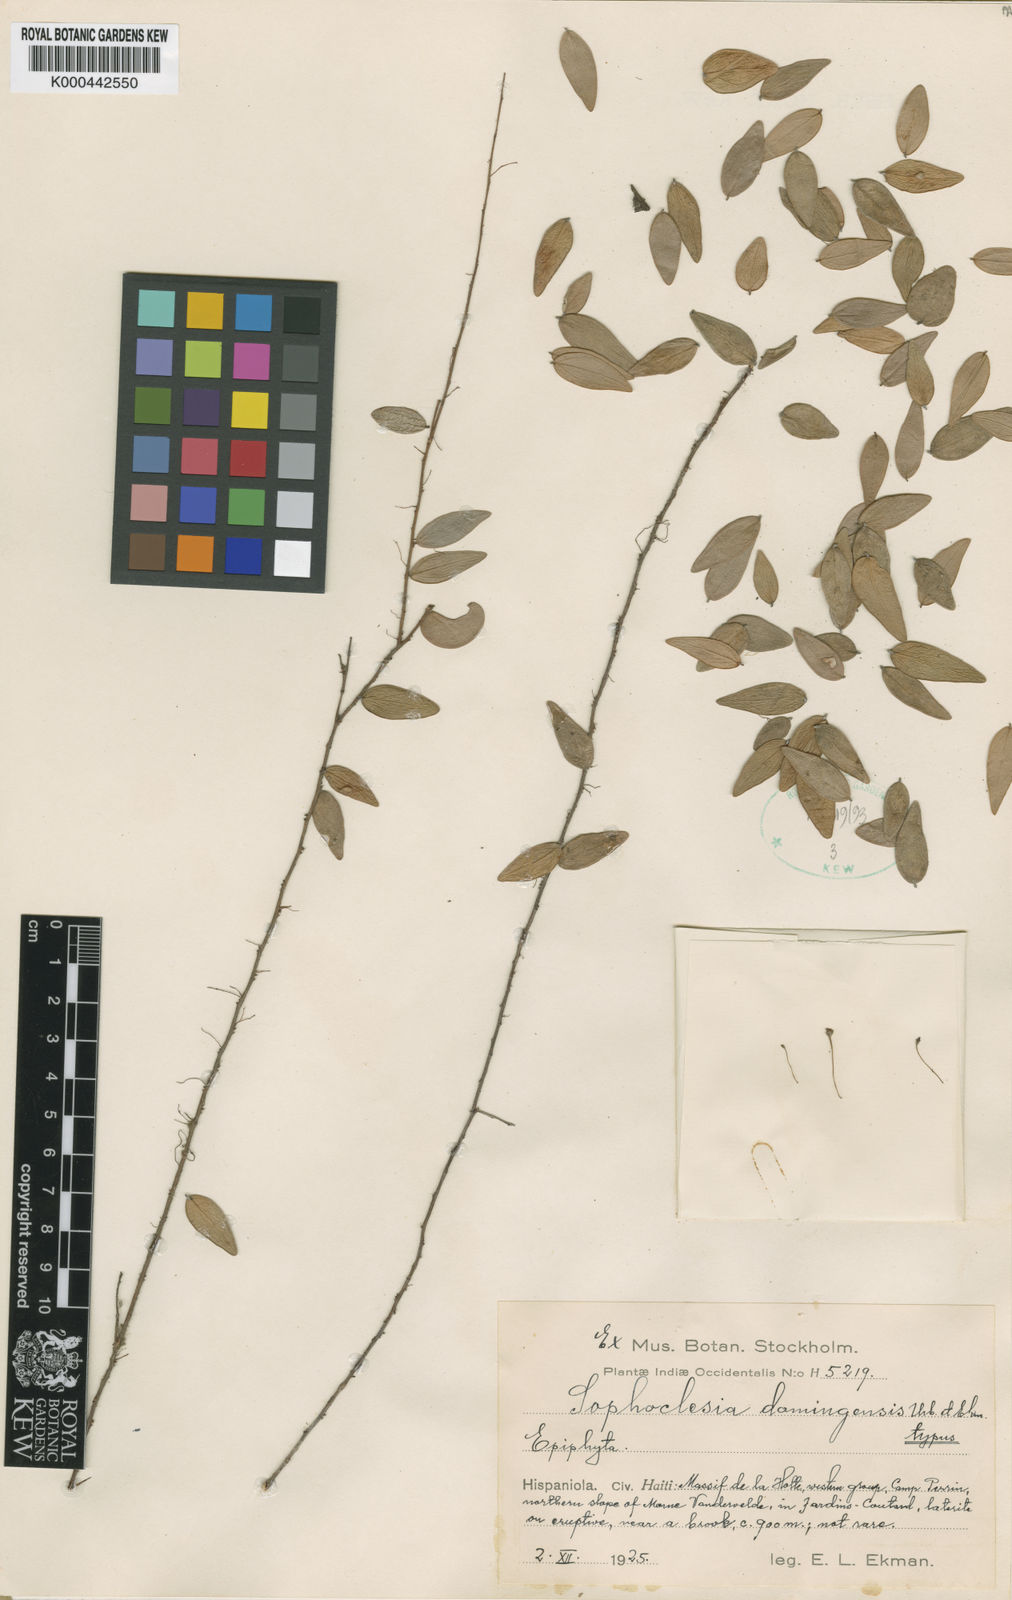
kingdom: Plantae
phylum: Tracheophyta
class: Magnoliopsida
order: Ericales
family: Ericaceae
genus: Sphyrospermum
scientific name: Sphyrospermum
